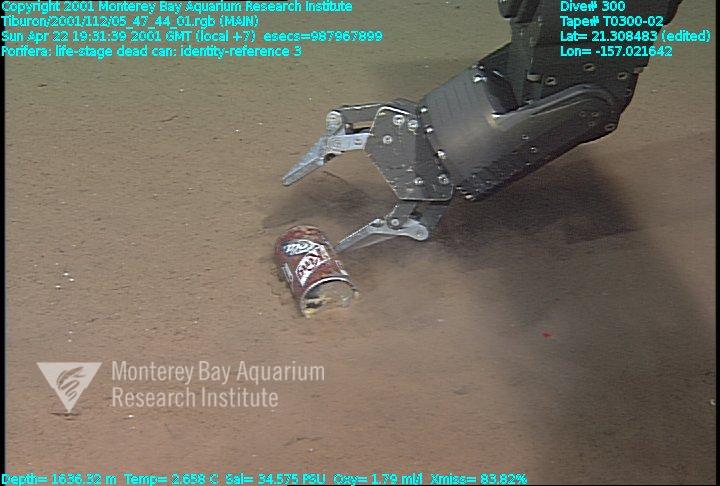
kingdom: Animalia
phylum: Porifera
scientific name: Porifera
